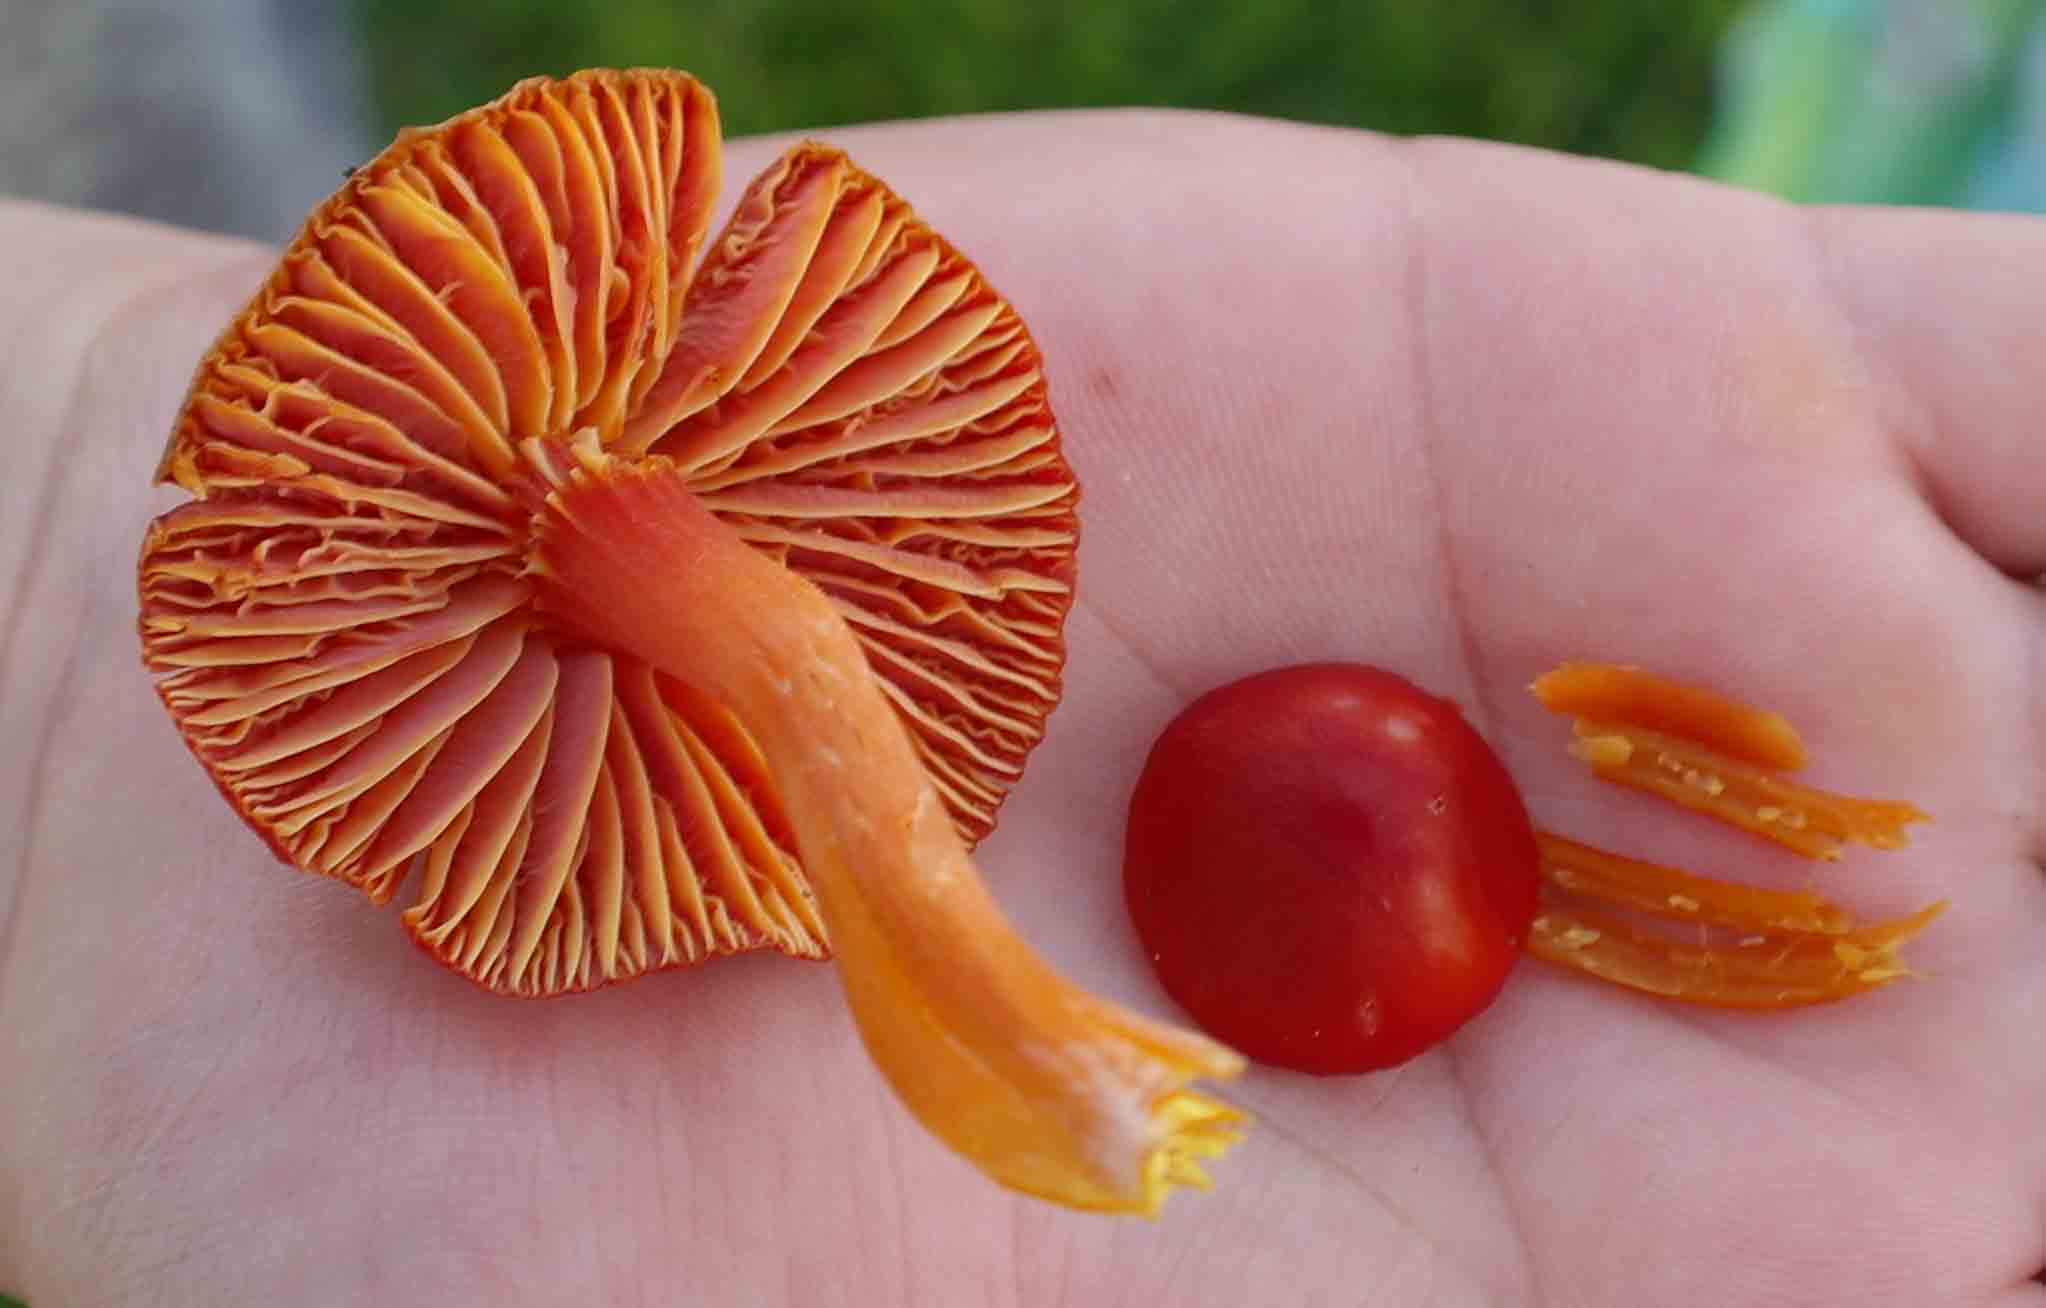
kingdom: Fungi
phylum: Basidiomycota
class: Agaricomycetes
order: Agaricales
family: Hygrophoraceae
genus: Hygrocybe
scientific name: Hygrocybe coccinea
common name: cinnober-vokshat
